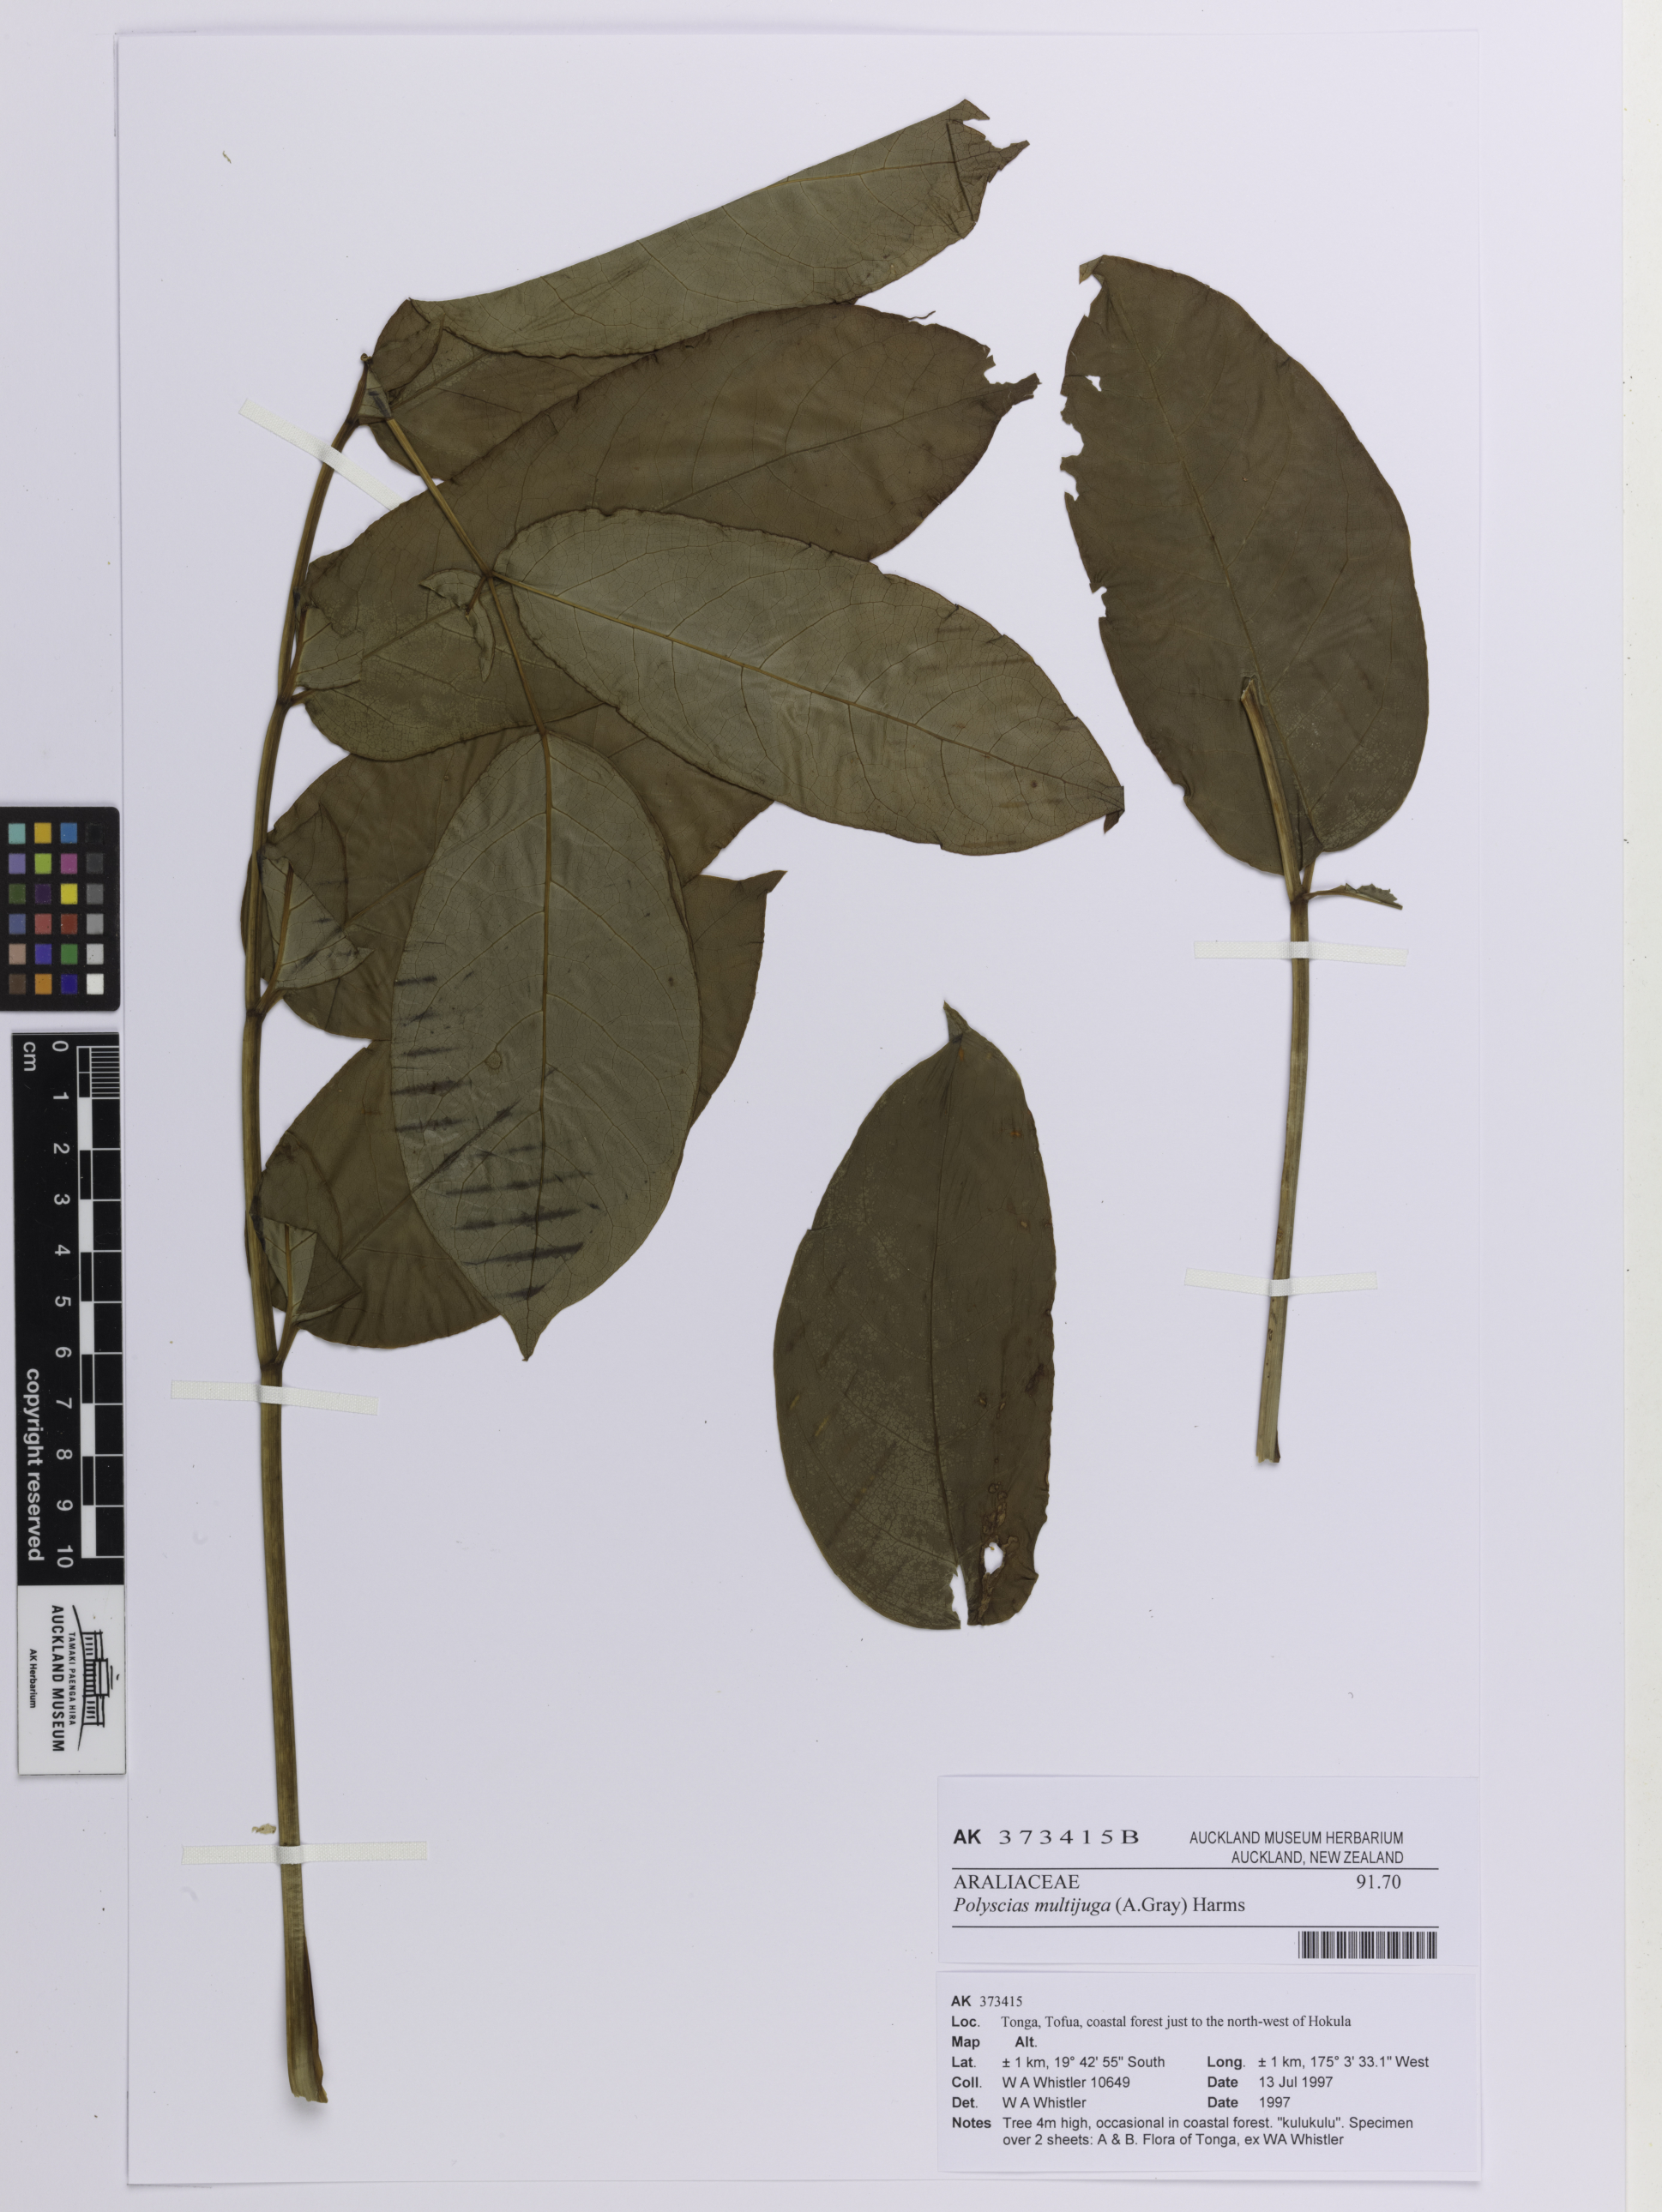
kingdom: Plantae
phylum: Tracheophyta
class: Magnoliopsida
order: Apiales
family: Araliaceae
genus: Polyscias
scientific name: Polyscias multijuga
